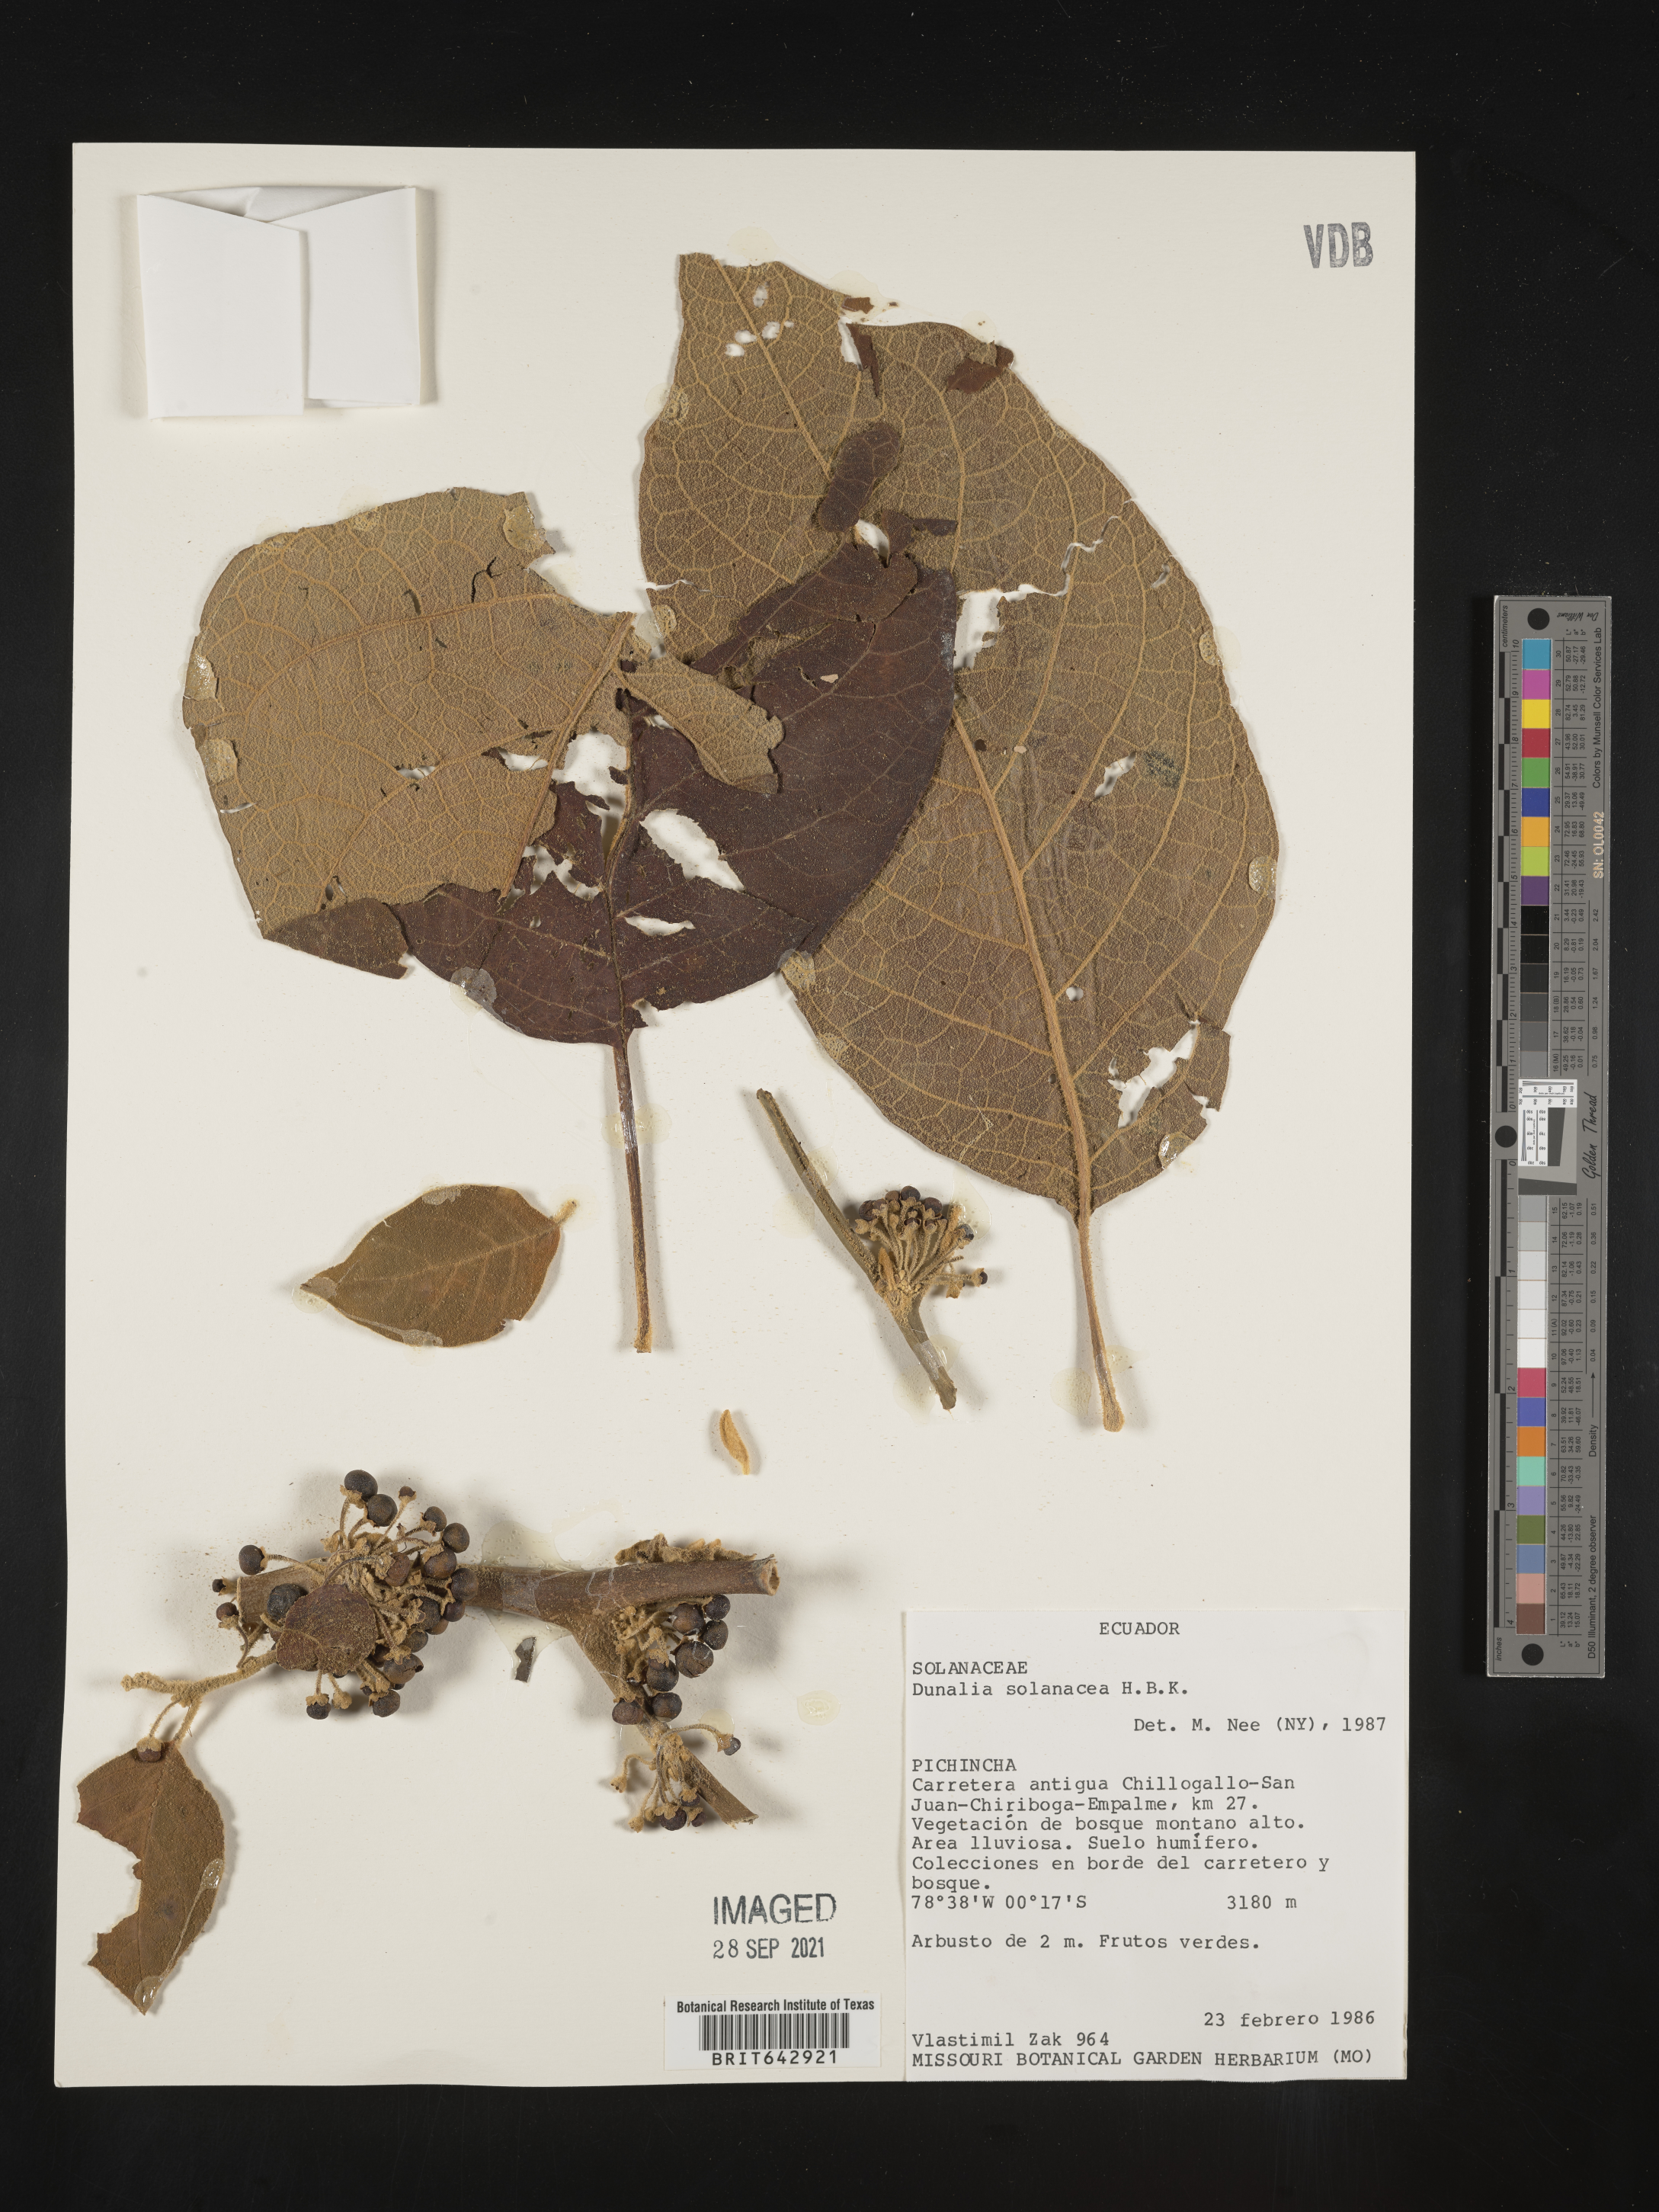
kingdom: Plantae
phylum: Tracheophyta
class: Magnoliopsida
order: Solanales
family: Solanaceae
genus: Dunalia
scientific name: Dunalia
